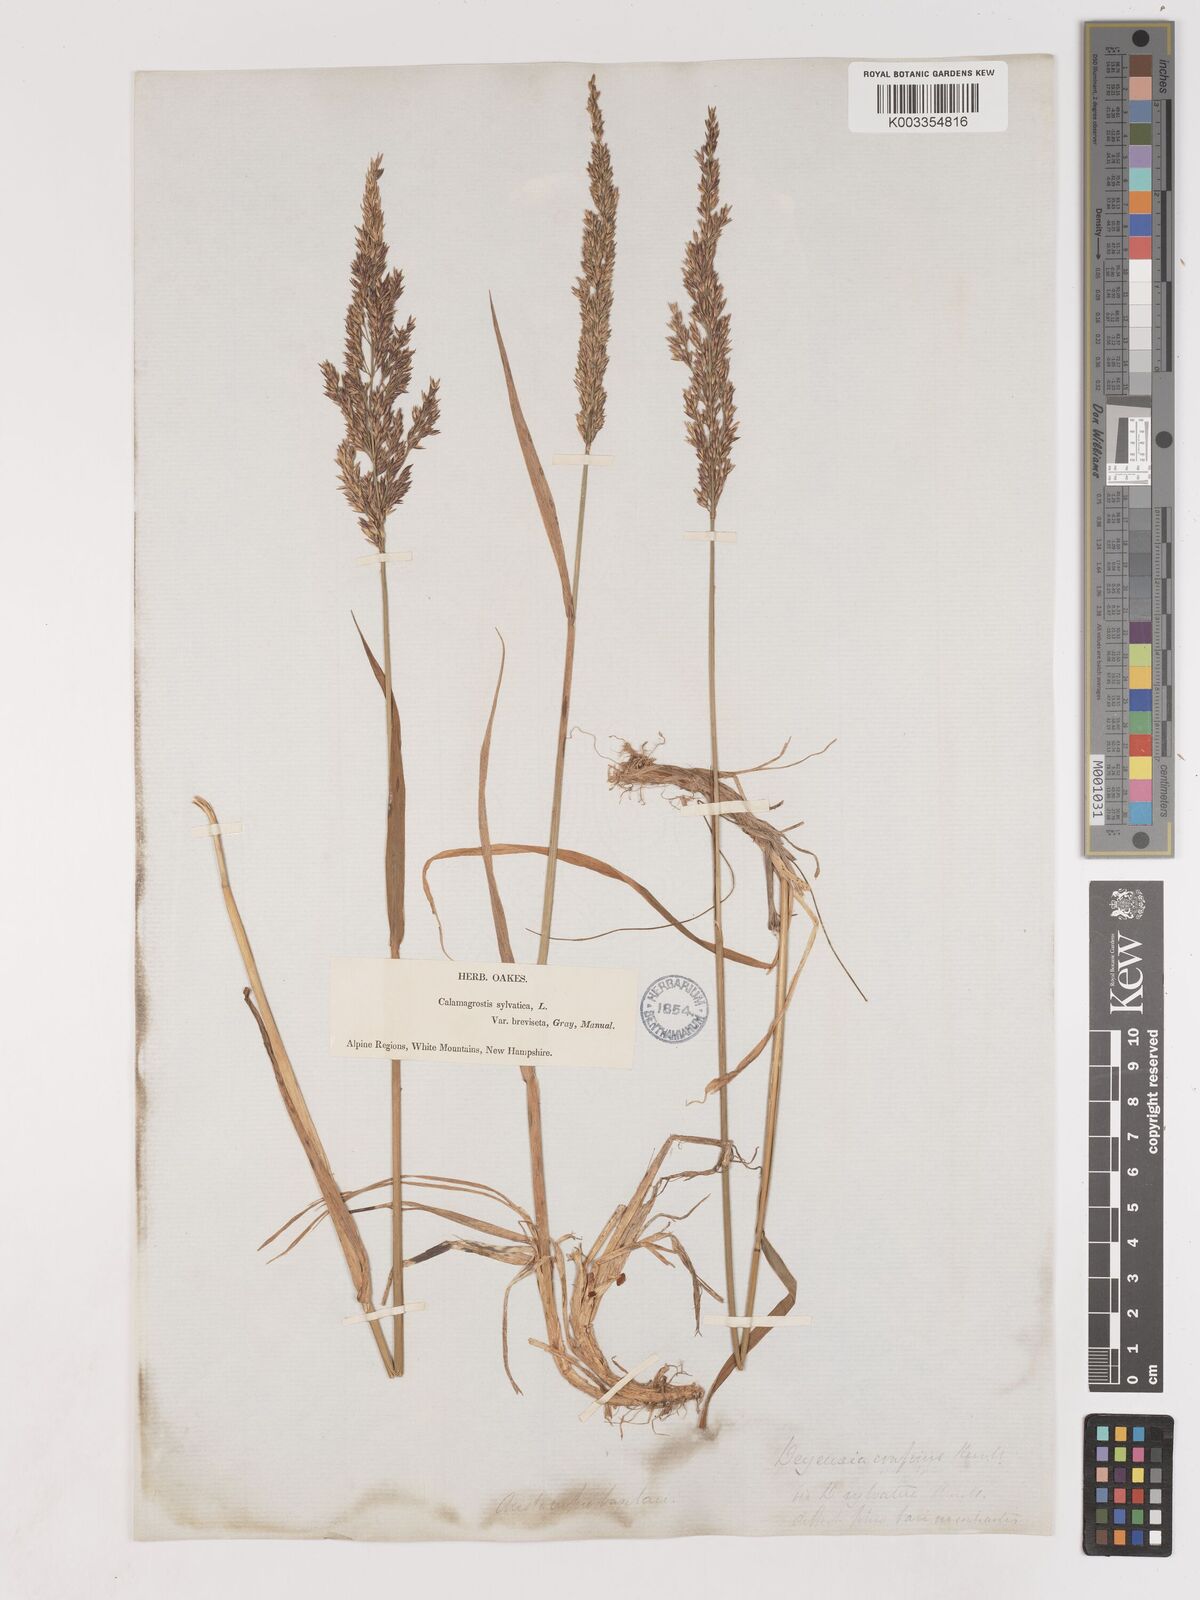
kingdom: Plantae
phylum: Tracheophyta
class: Liliopsida
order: Poales
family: Poaceae
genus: Calamagrostis
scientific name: Calamagrostis
